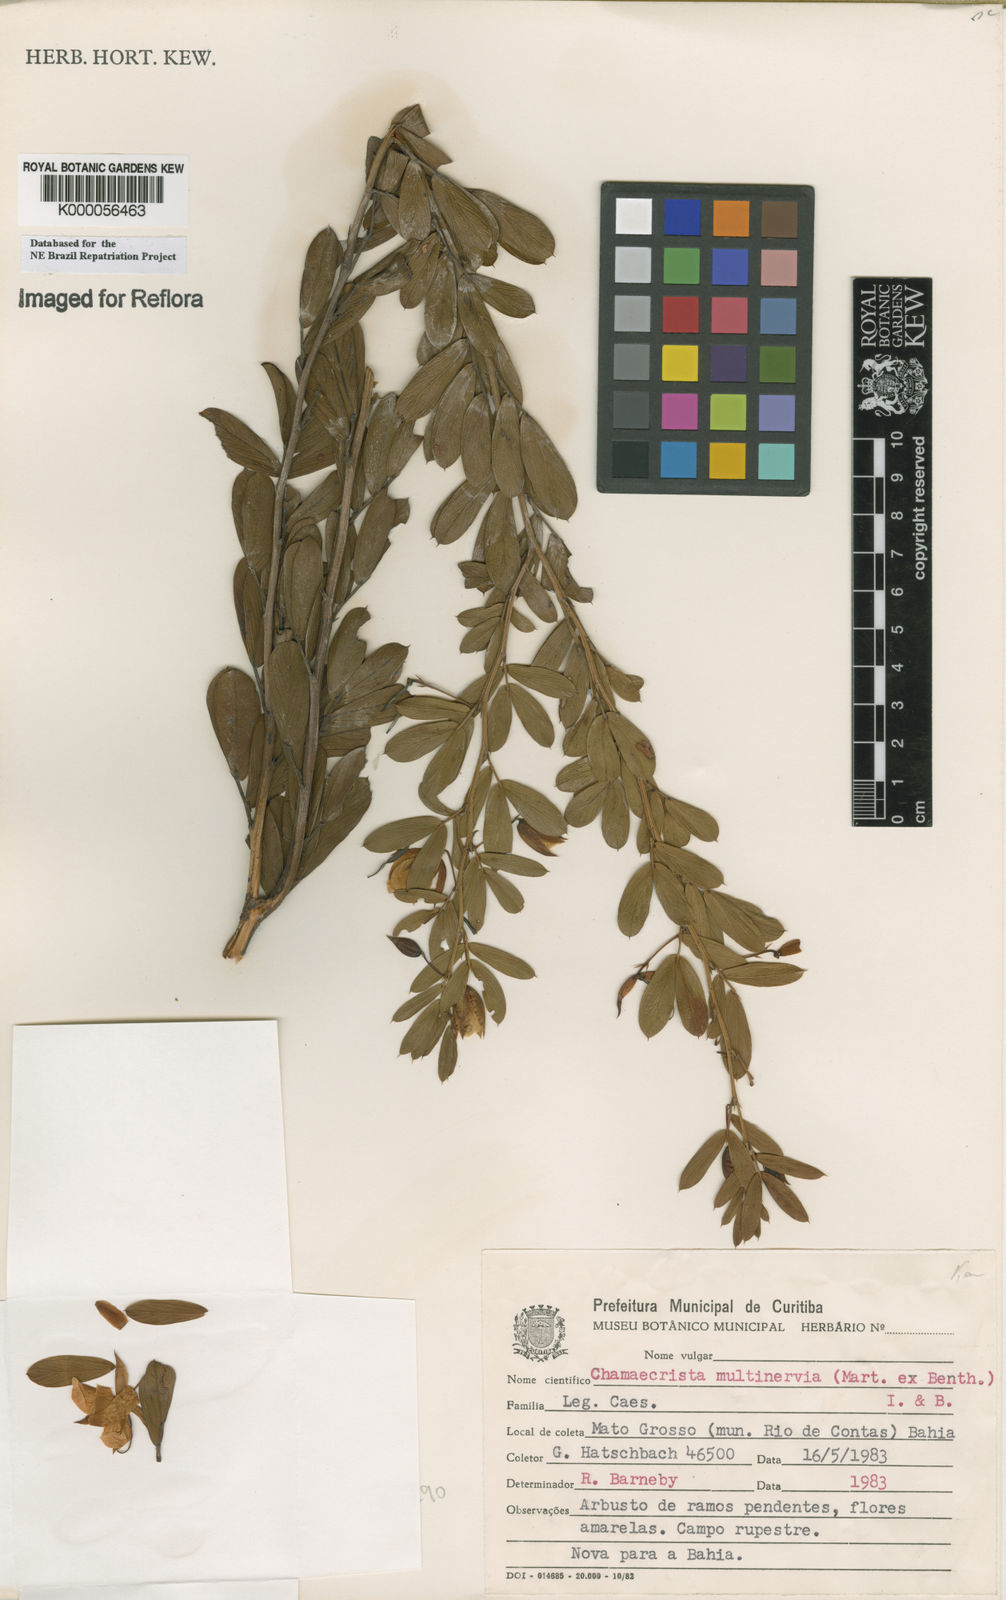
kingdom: Plantae
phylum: Tracheophyta
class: Magnoliopsida
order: Fabales
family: Fabaceae
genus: Chamaecrista
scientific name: Chamaecrista multinervia
